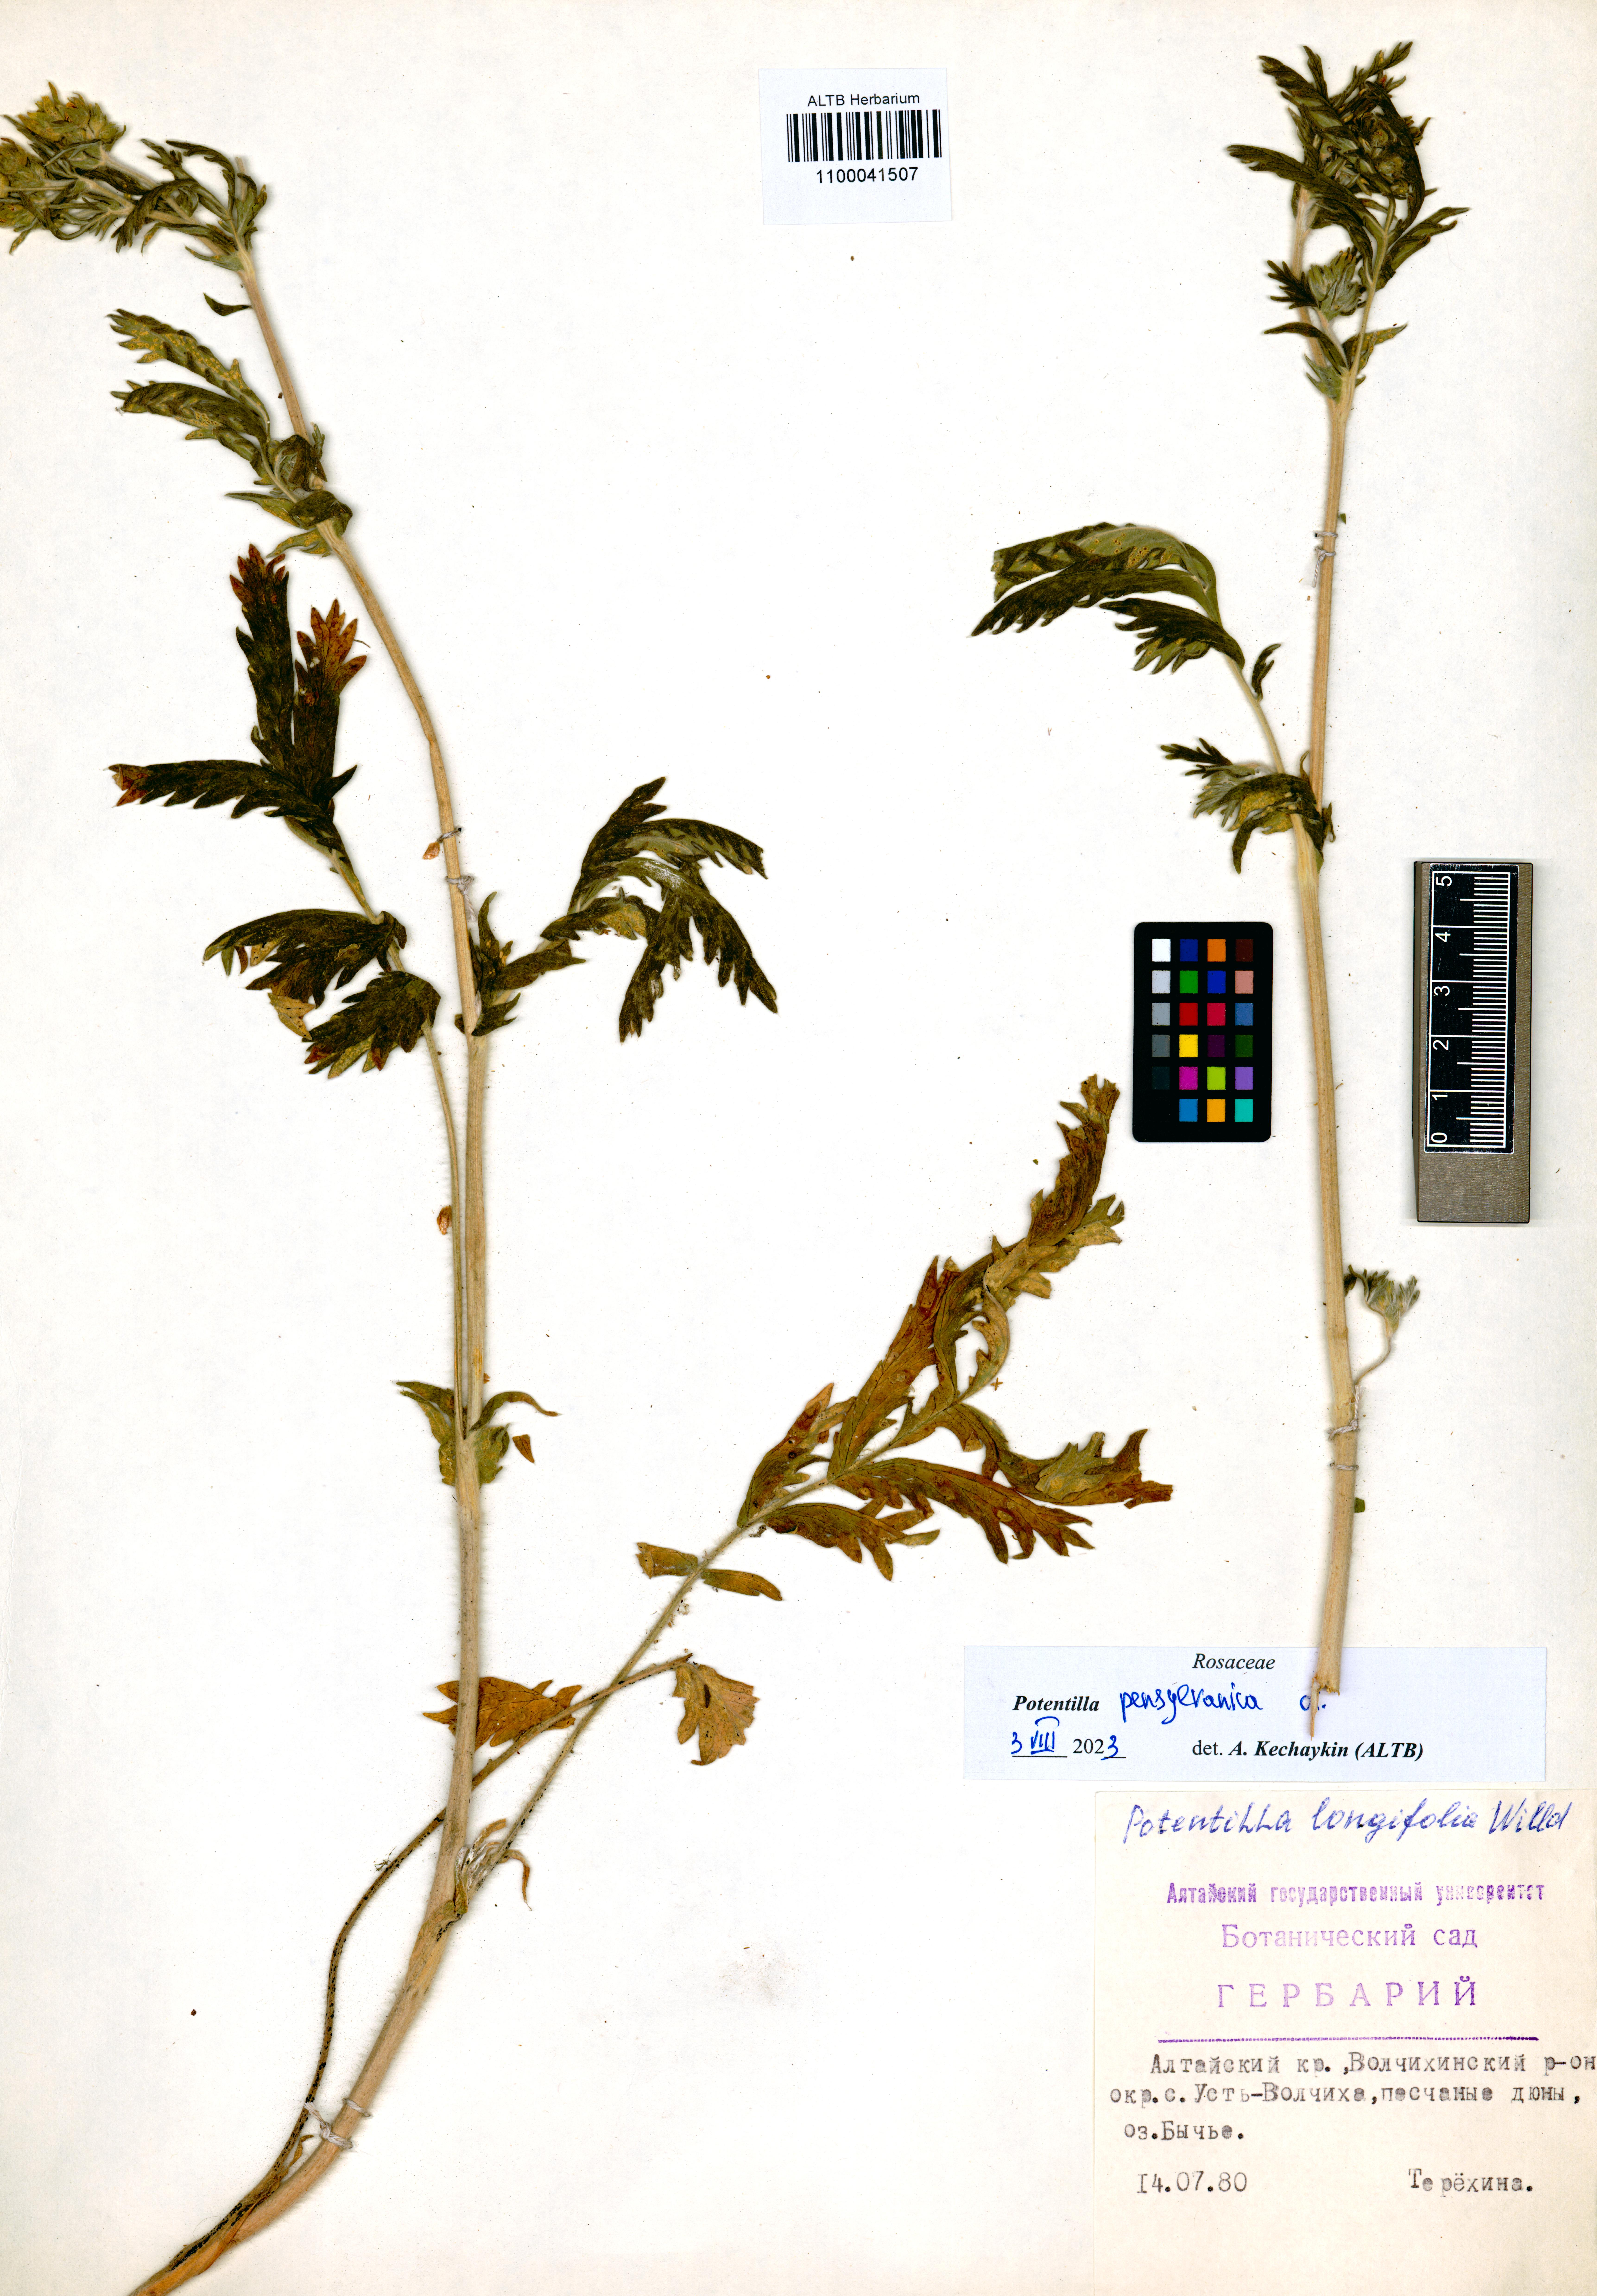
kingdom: Plantae
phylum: Tracheophyta
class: Magnoliopsida
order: Rosales
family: Rosaceae
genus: Potentilla
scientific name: Potentilla pensylvanica
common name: Pennsylvania cinquefoil
